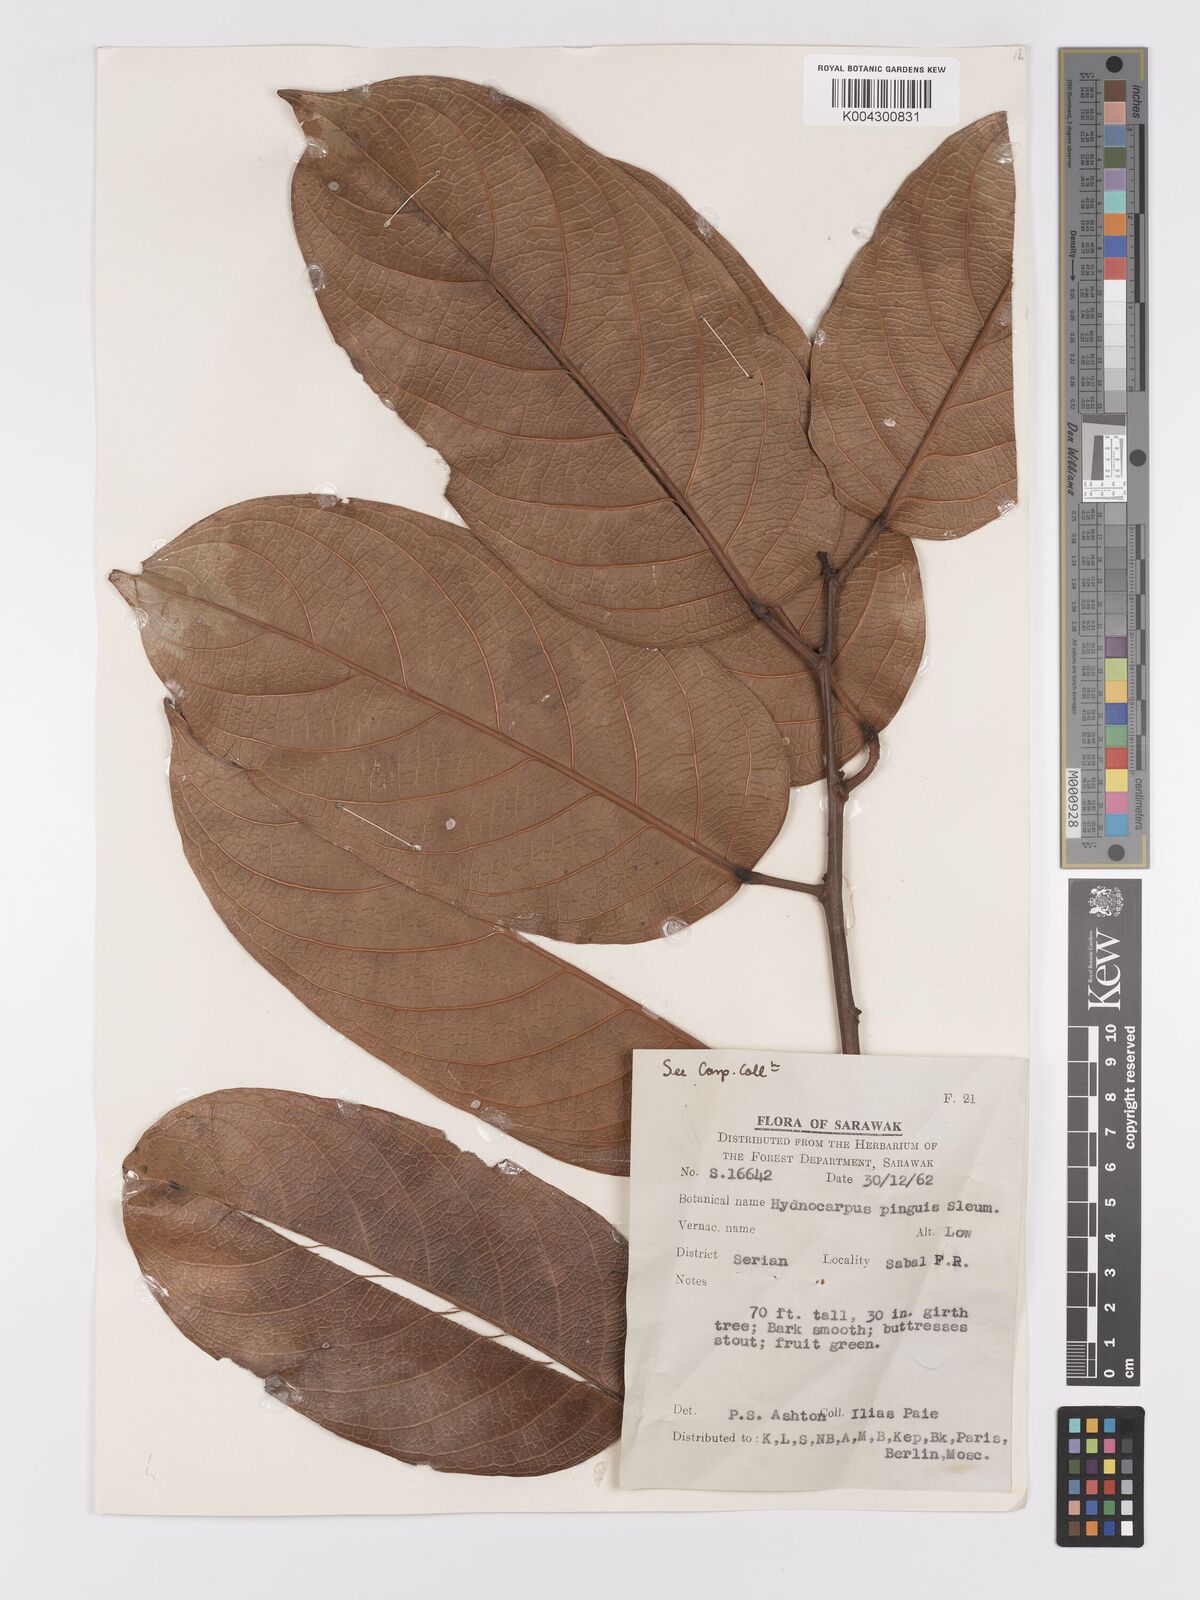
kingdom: Plantae
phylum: Tracheophyta
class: Magnoliopsida
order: Malpighiales
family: Achariaceae
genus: Hydnocarpus
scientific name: Hydnocarpus pinguis
